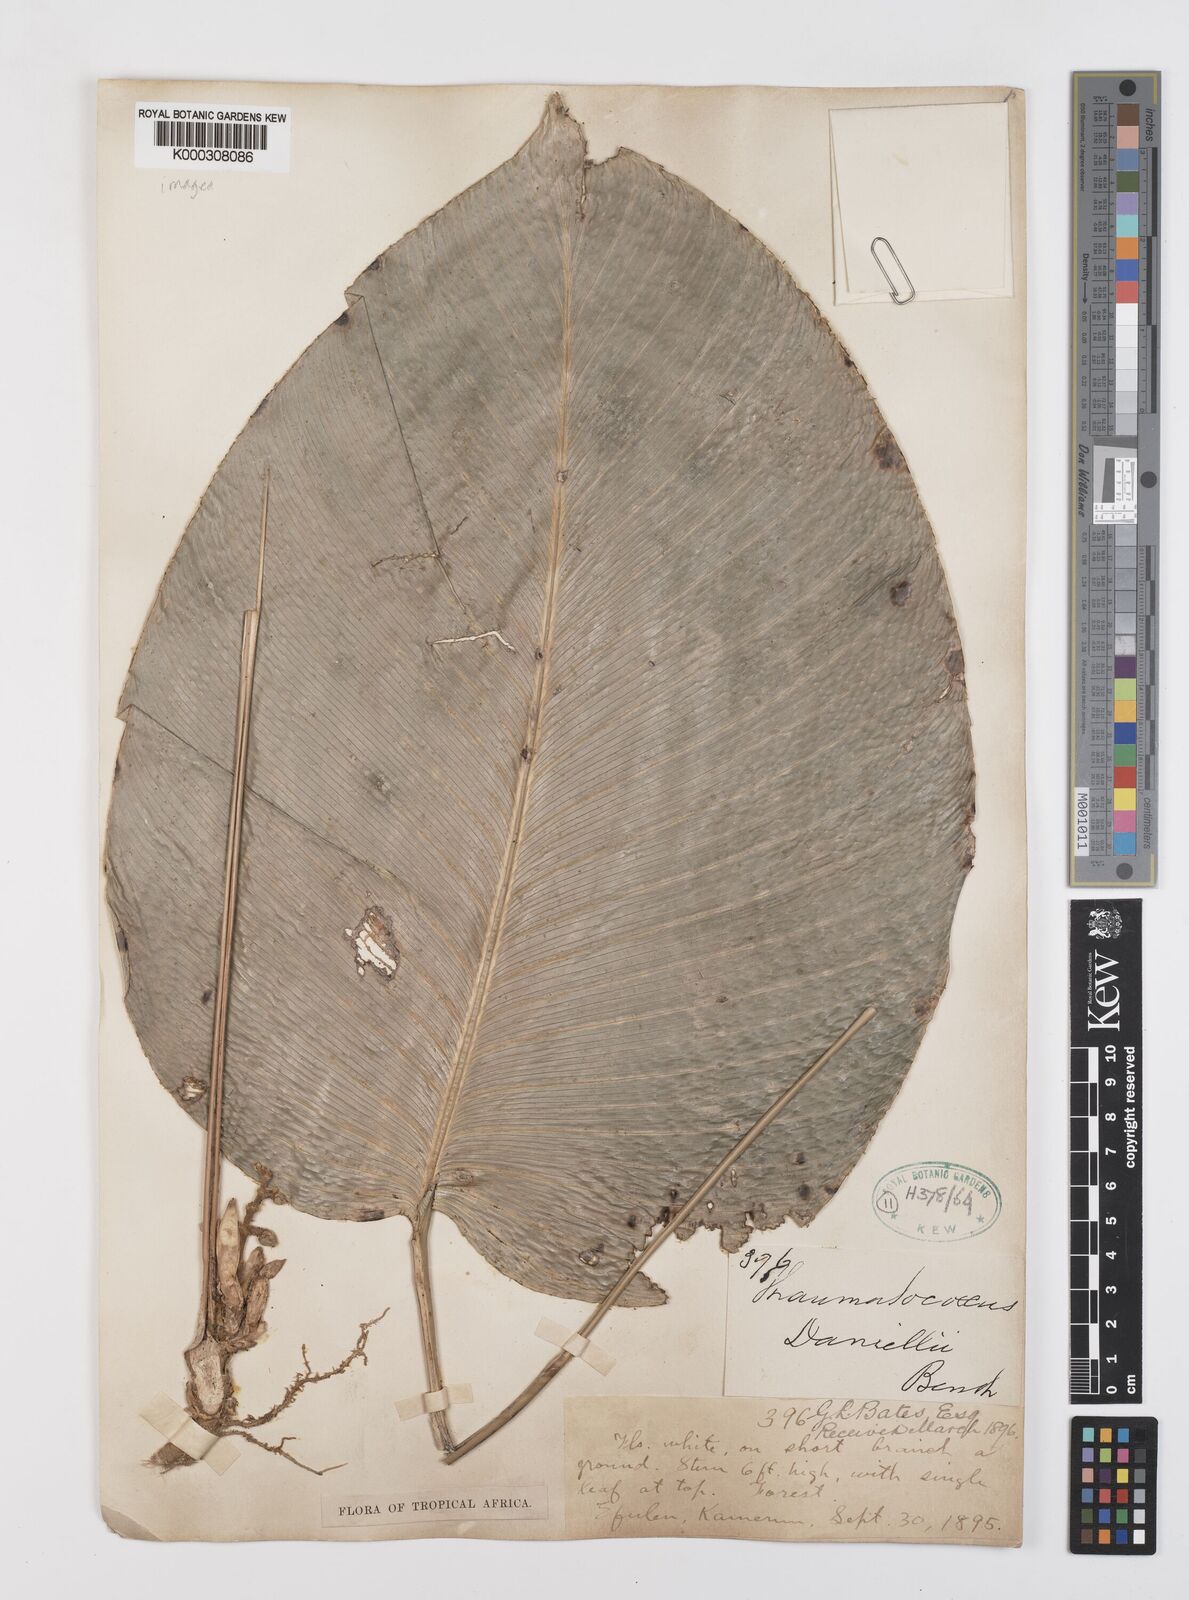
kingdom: Plantae
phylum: Tracheophyta
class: Liliopsida
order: Zingiberales
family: Marantaceae
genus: Thaumatococcus
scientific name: Thaumatococcus
